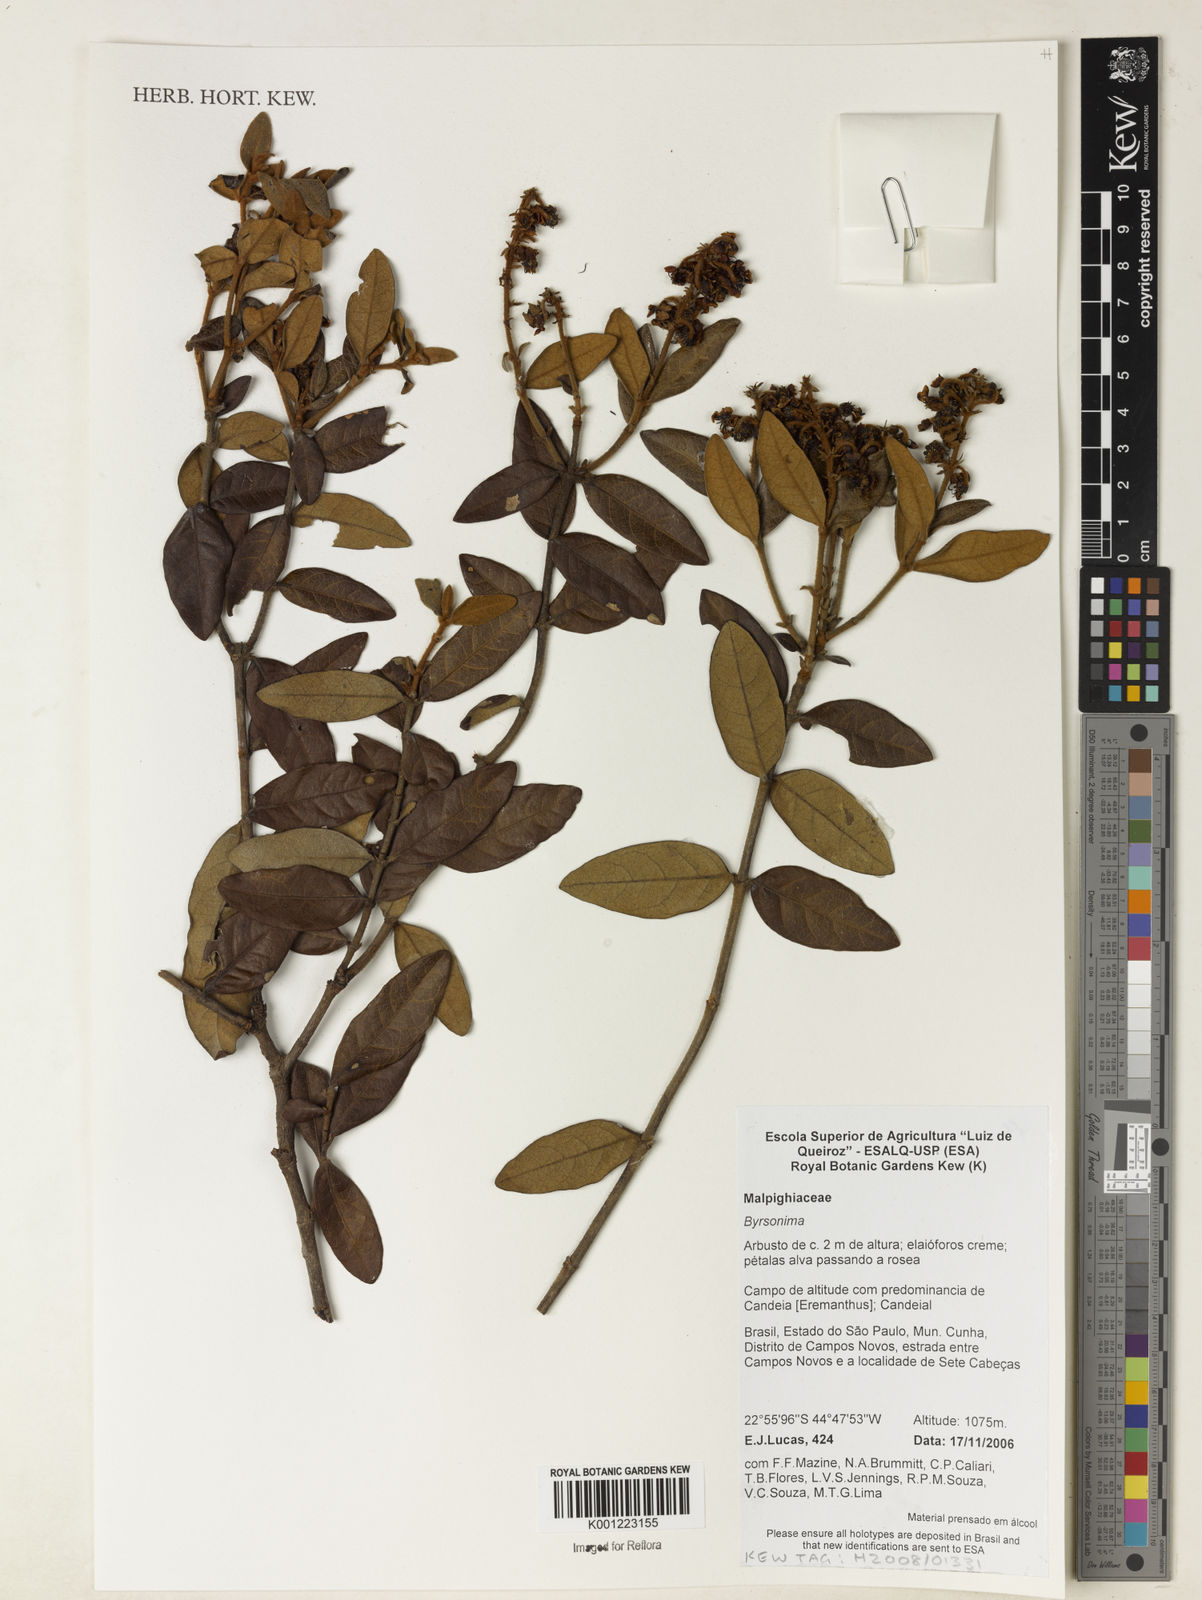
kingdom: Plantae
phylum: Tracheophyta
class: Magnoliopsida
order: Malpighiales
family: Malpighiaceae
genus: Byrsonima
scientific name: Byrsonima
